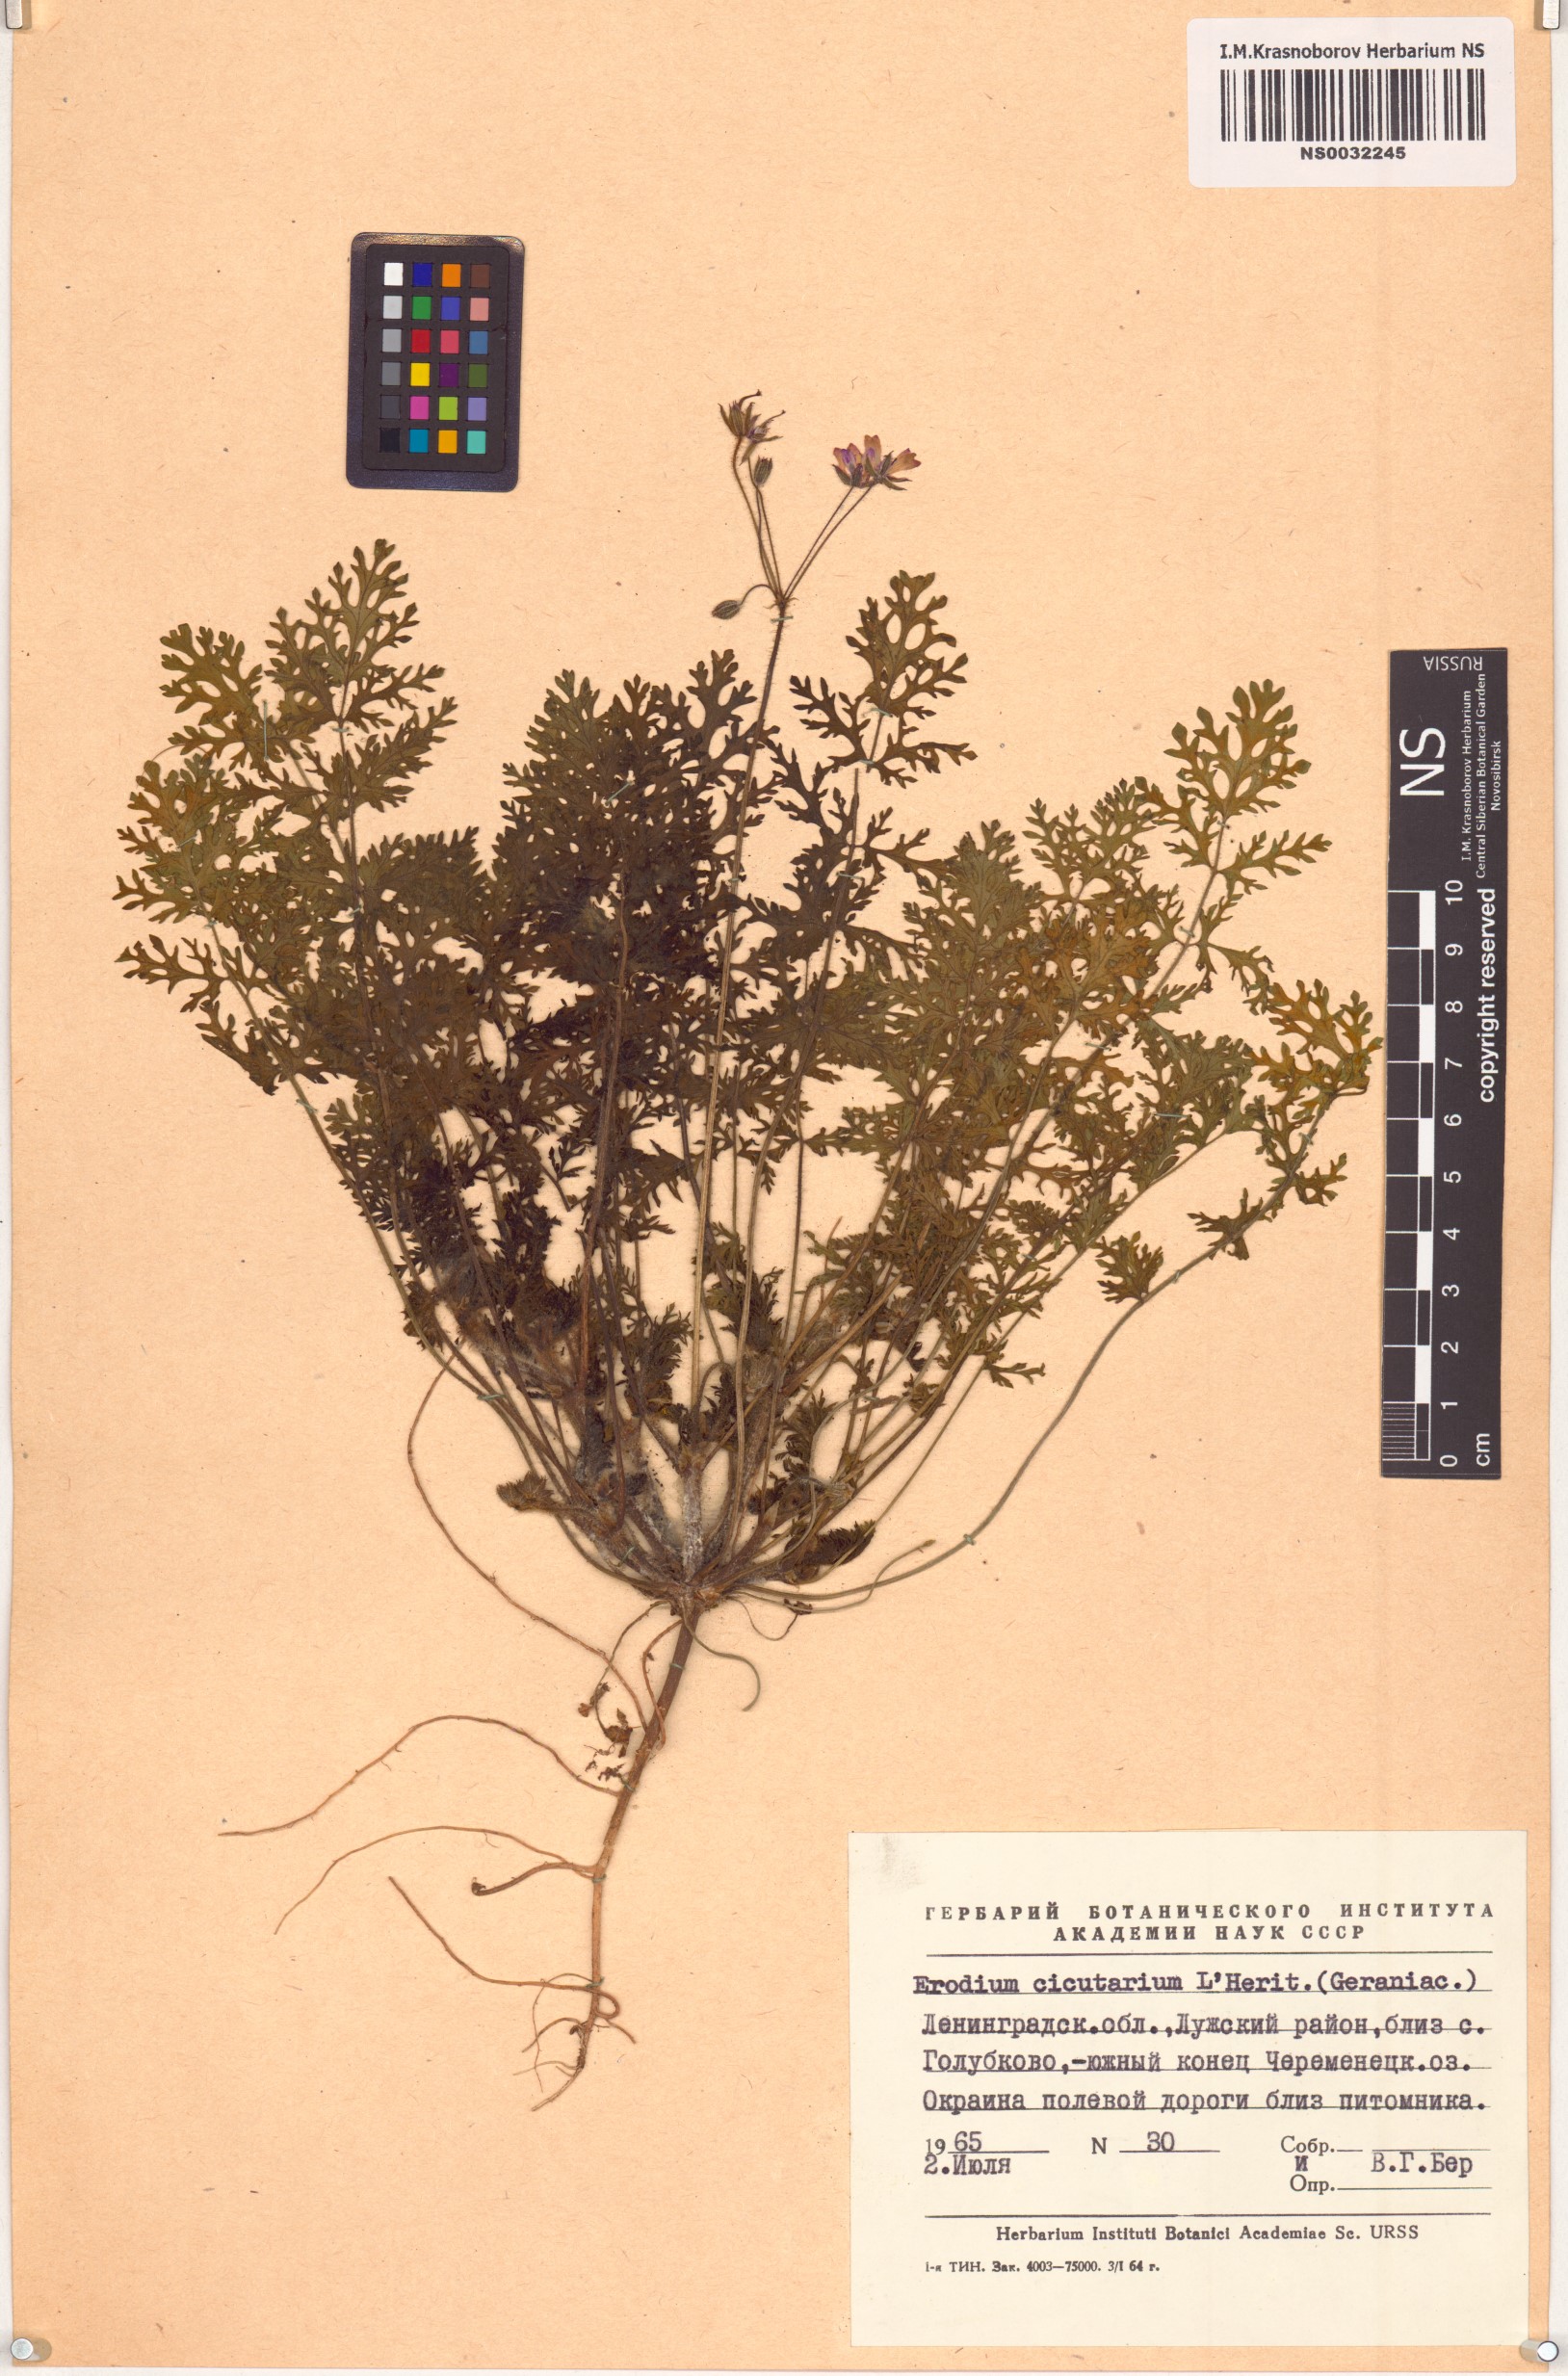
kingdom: Plantae
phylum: Tracheophyta
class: Magnoliopsida
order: Geraniales
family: Geraniaceae
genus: Erodium
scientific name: Erodium cicutarium
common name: Common stork's-bill
